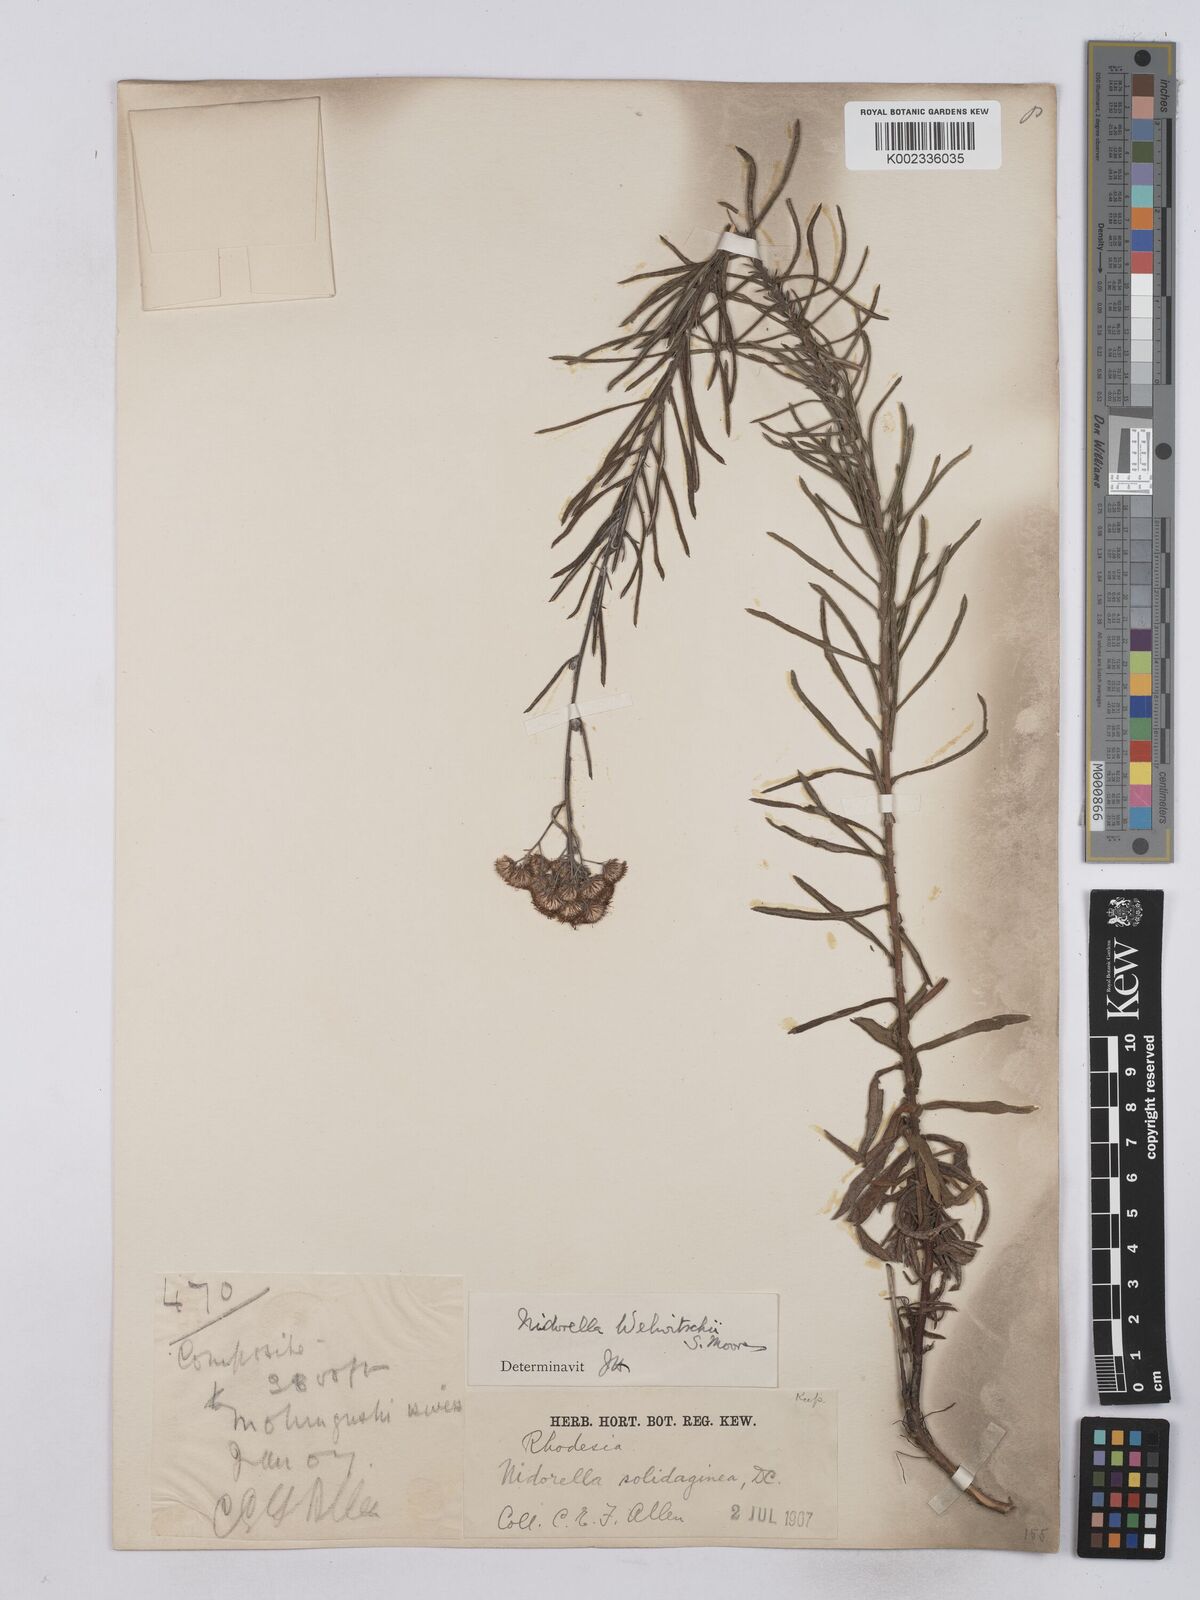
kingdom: Plantae
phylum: Tracheophyta
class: Magnoliopsida
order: Asterales
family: Asteraceae
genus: Nidorella
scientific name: Nidorella welwitschii
